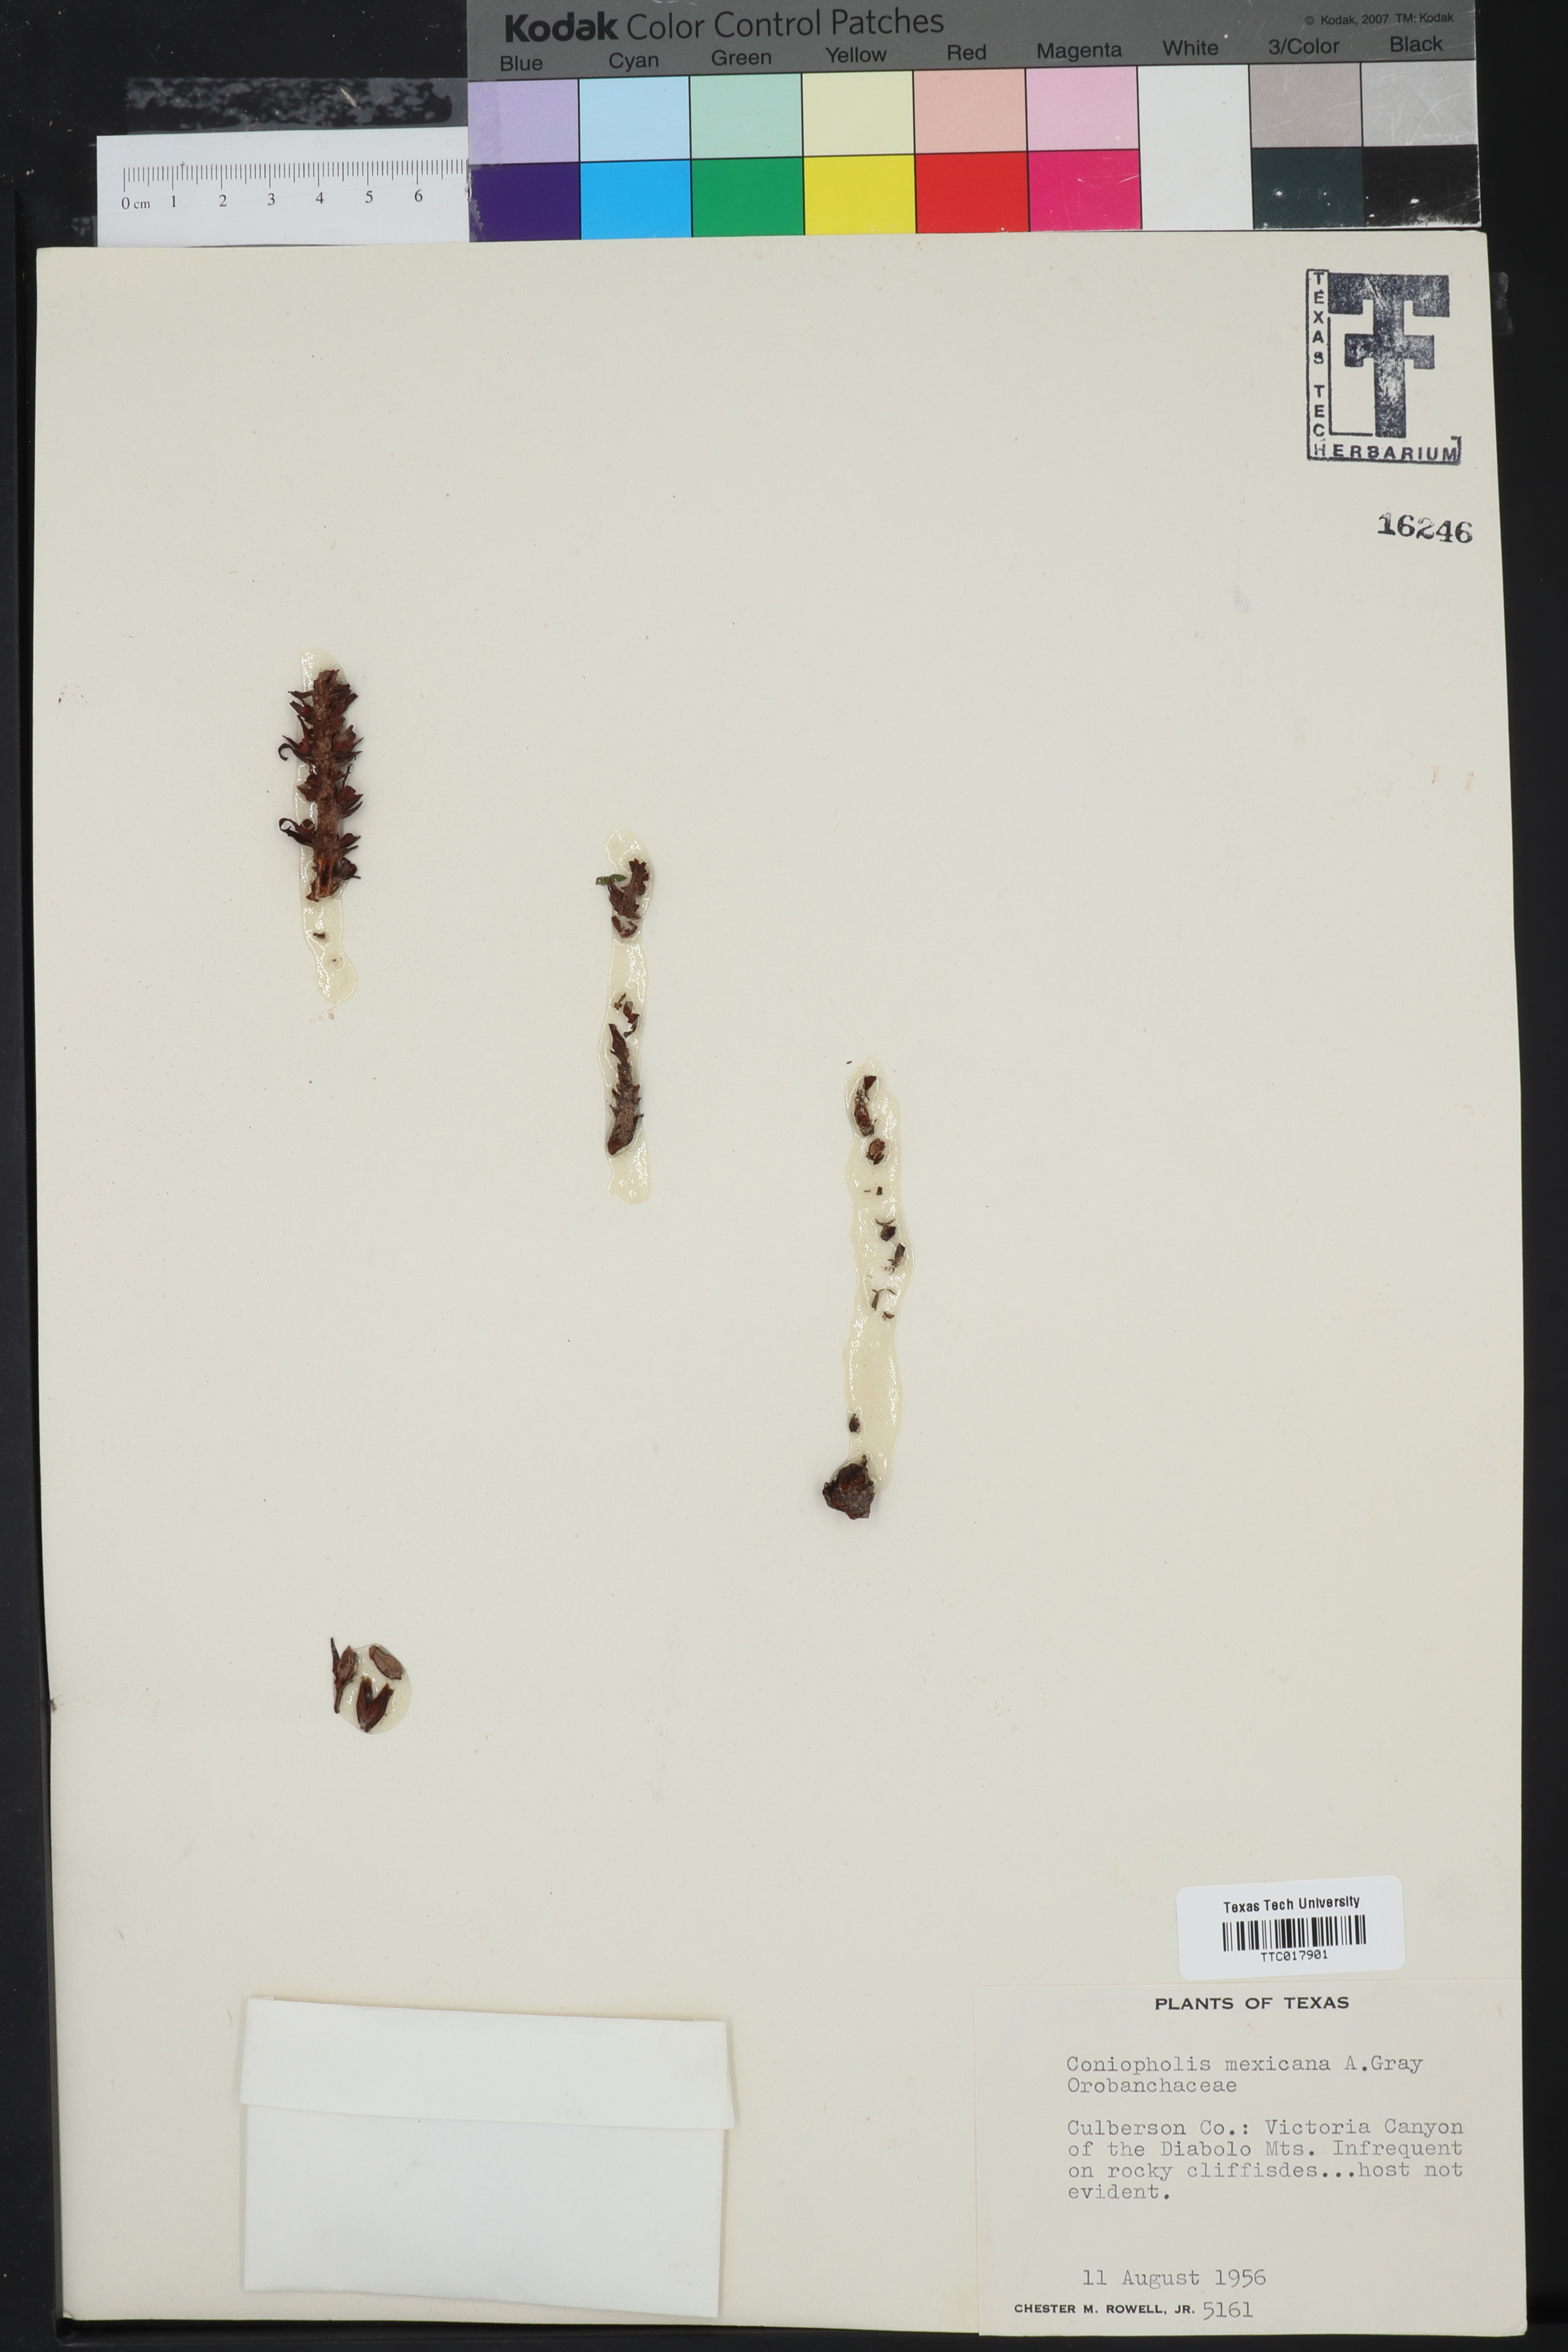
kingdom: Plantae
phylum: Tracheophyta
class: Magnoliopsida
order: Lamiales
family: Orobanchaceae
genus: Conopholis
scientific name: Conopholis alpina
